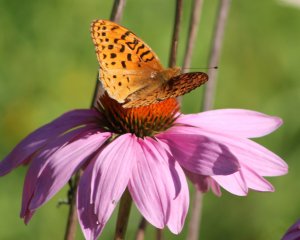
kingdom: Animalia
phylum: Arthropoda
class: Insecta
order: Lepidoptera
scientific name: Lepidoptera
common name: Butterflies
